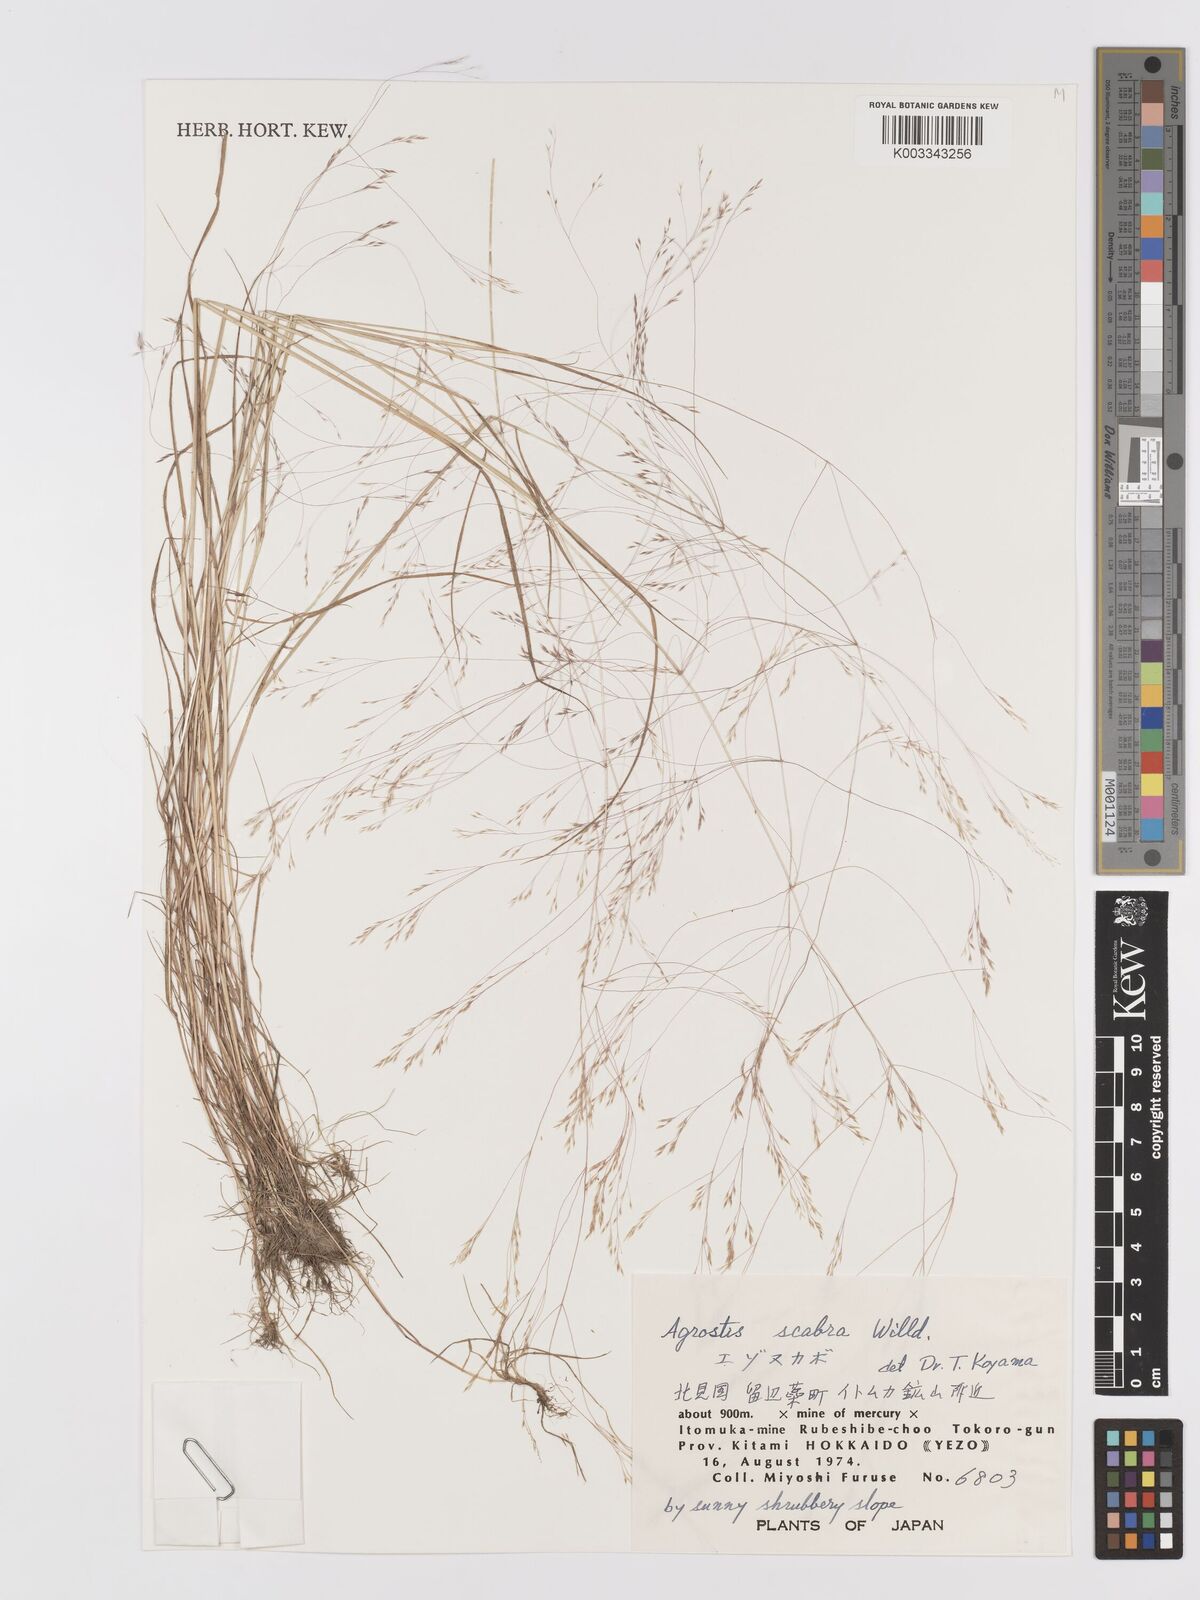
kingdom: Plantae
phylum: Tracheophyta
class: Liliopsida
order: Poales
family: Poaceae
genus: Agrostis
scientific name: Agrostis scabra
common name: Rough bent
